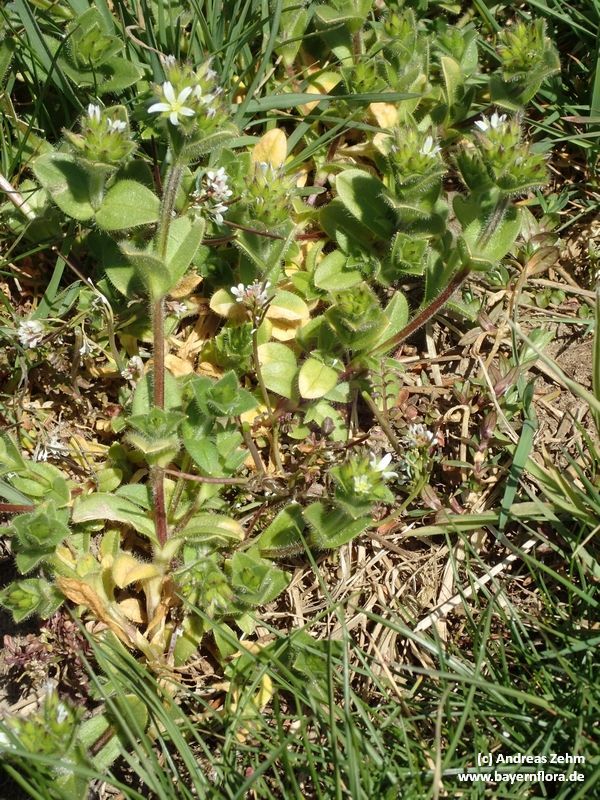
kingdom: Plantae
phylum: Tracheophyta
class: Magnoliopsida
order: Caryophyllales
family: Caryophyllaceae
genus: Cerastium
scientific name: Cerastium glomeratum
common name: Sticky chickweed
